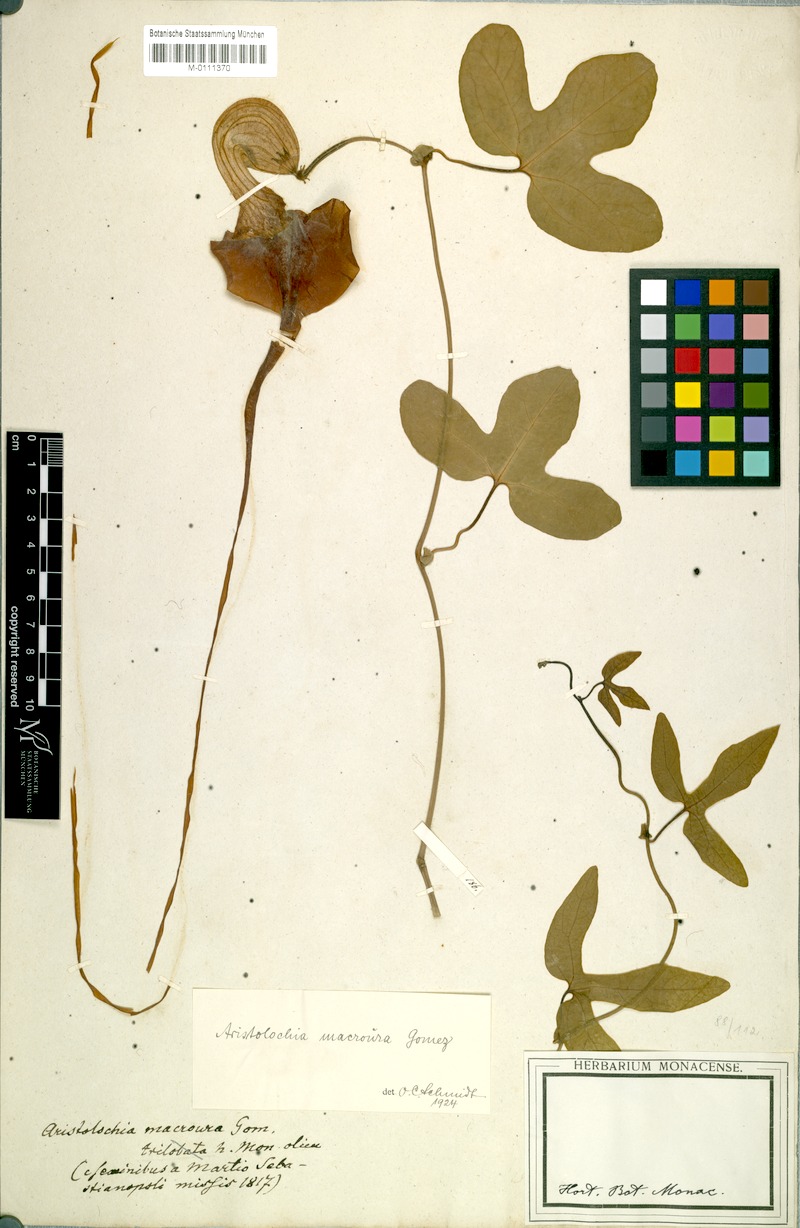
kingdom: Plantae
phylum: Tracheophyta
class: Magnoliopsida
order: Piperales
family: Aristolochiaceae
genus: Aristolochia
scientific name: Aristolochia macroura
